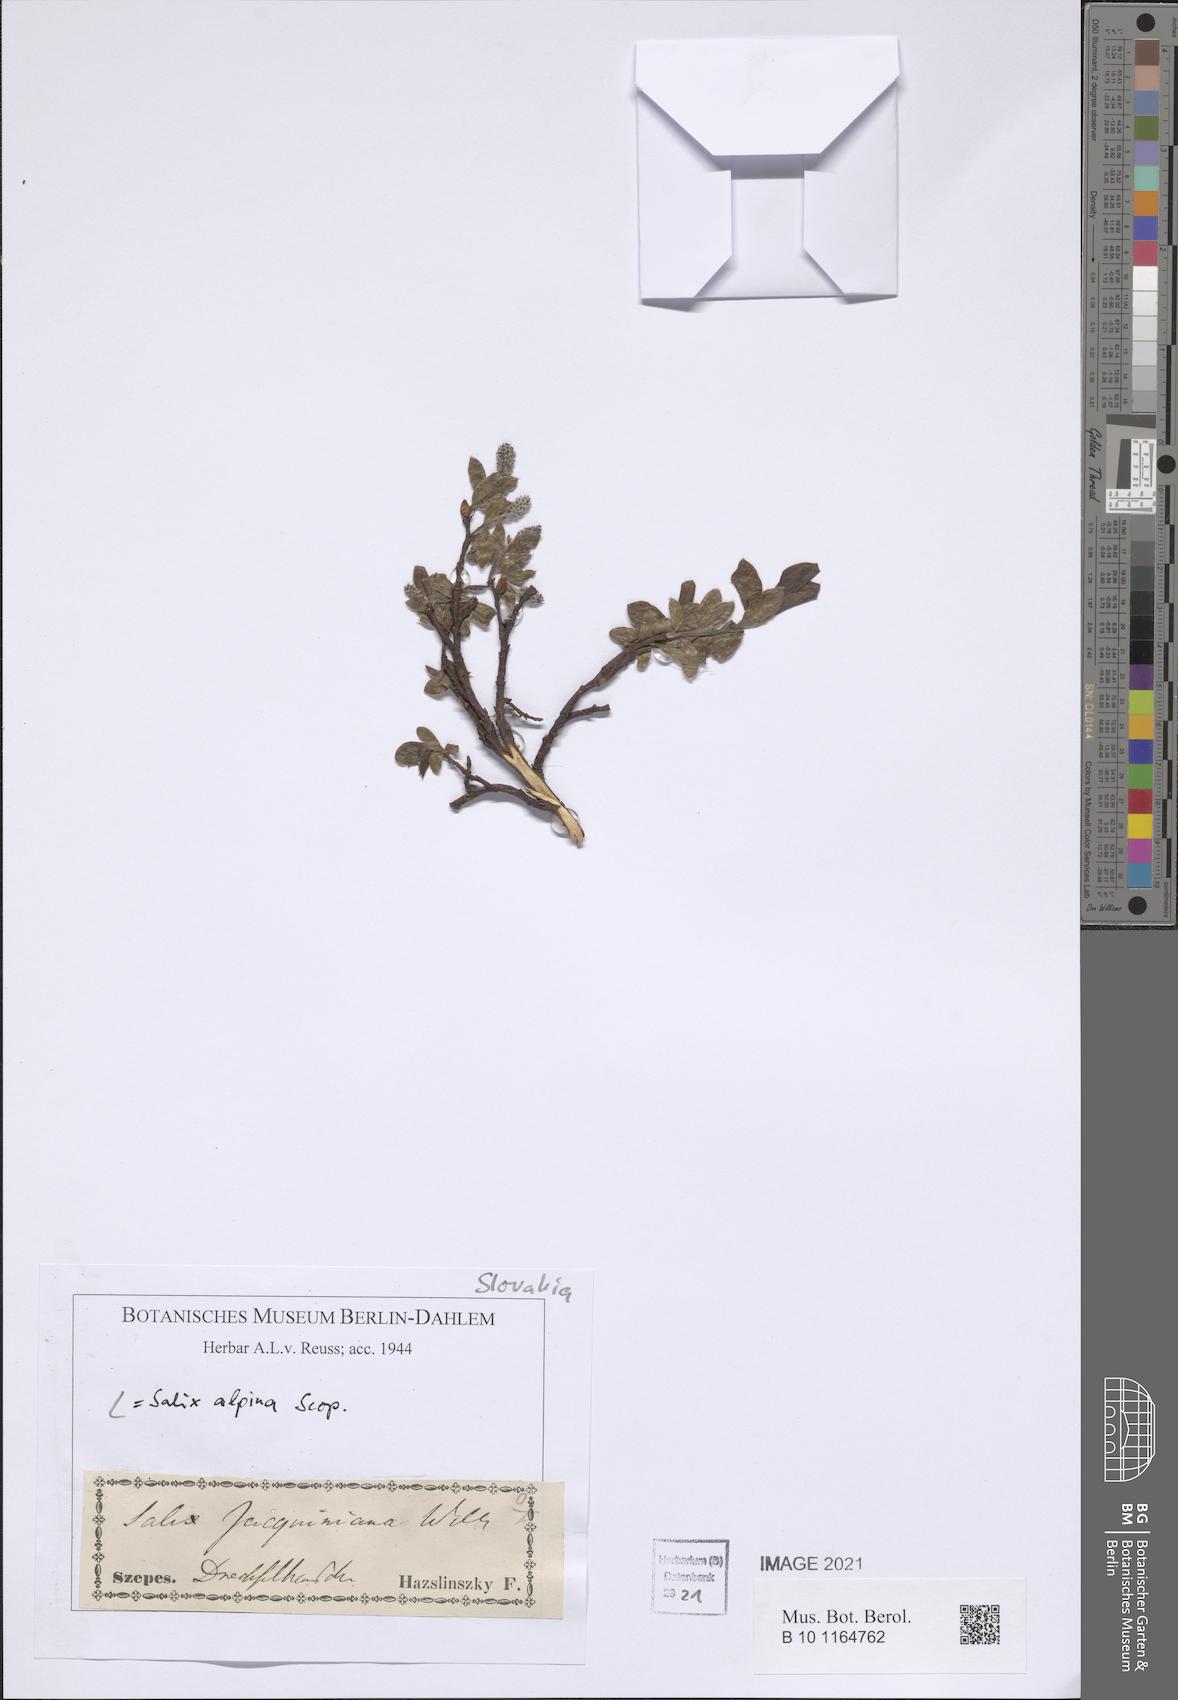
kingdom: Plantae
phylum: Tracheophyta
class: Magnoliopsida
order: Malpighiales
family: Salicaceae
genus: Salix
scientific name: Salix alpina
